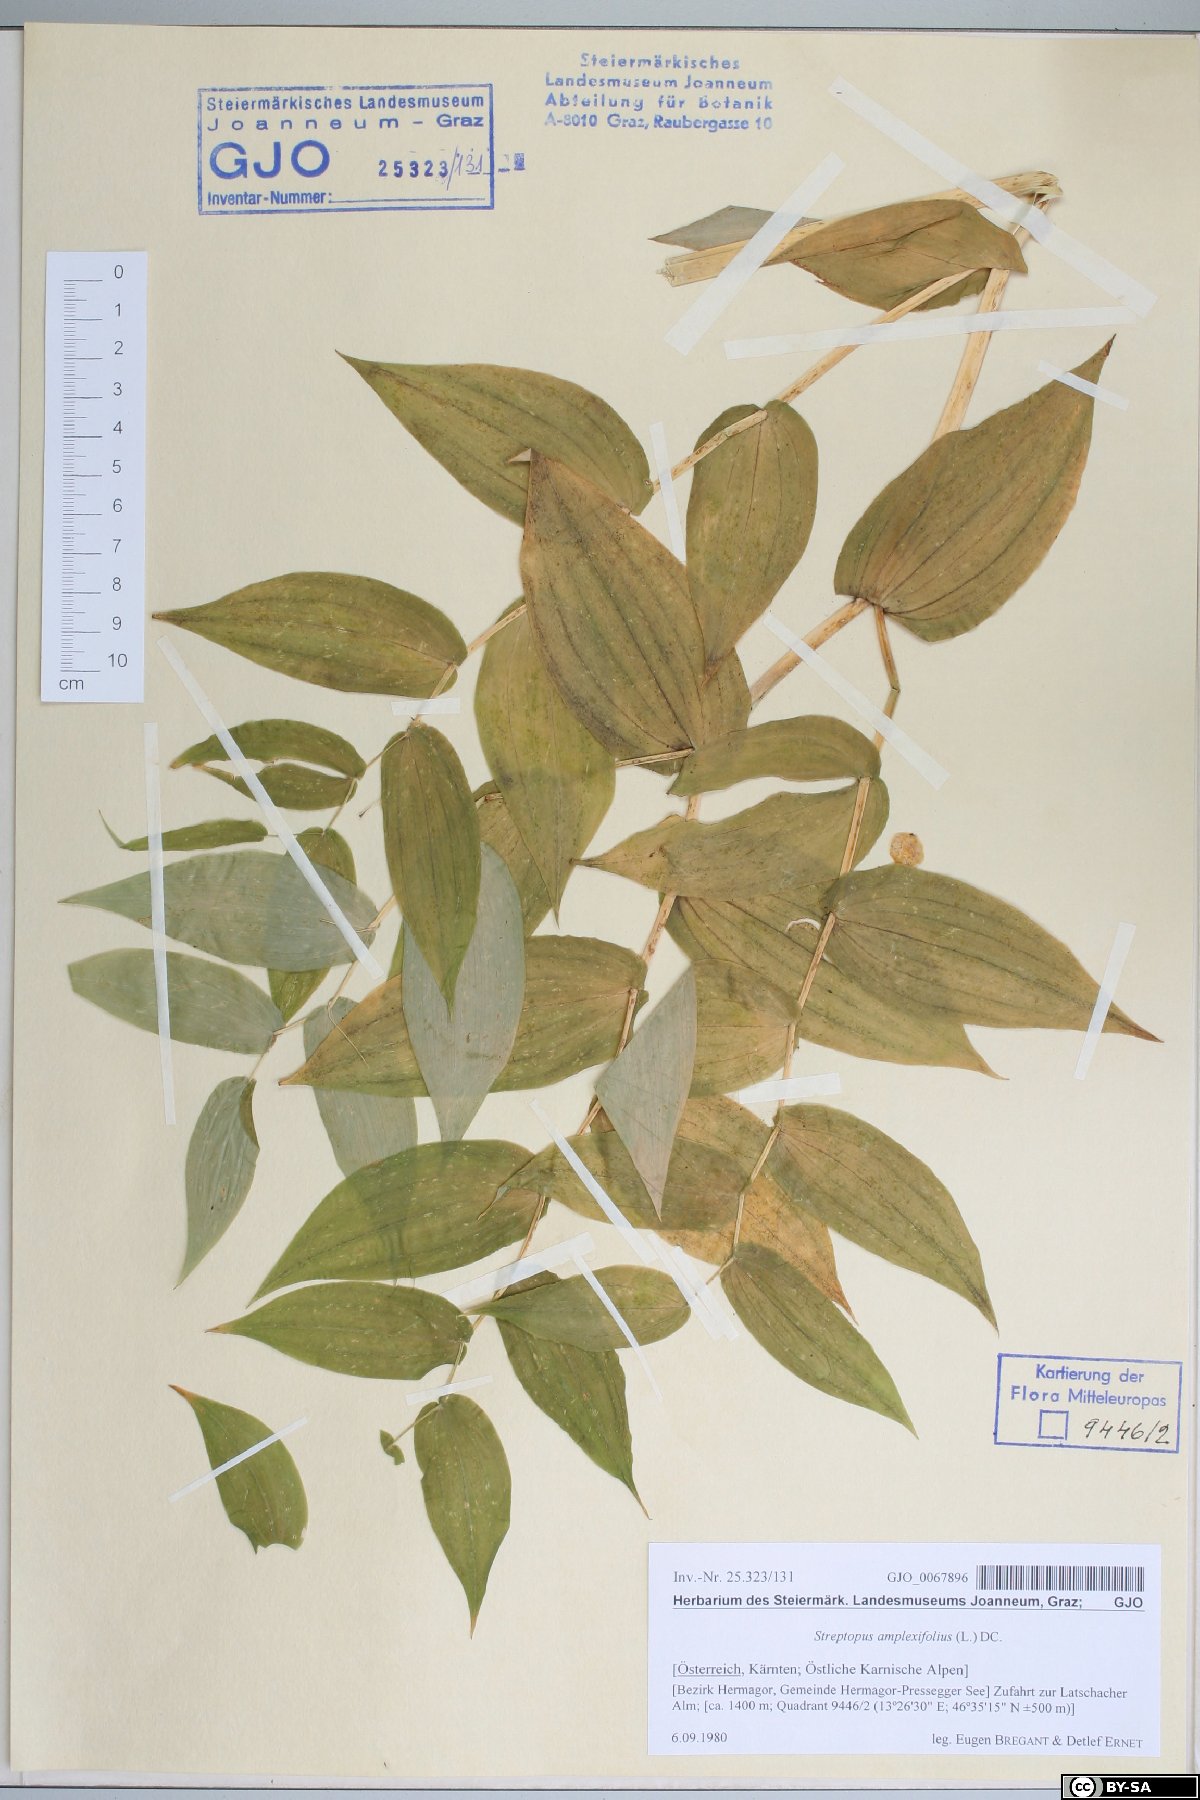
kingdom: Plantae
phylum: Tracheophyta
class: Liliopsida
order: Liliales
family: Liliaceae
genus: Streptopus
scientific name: Streptopus amplexifolius
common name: Clasp twisted stalk
